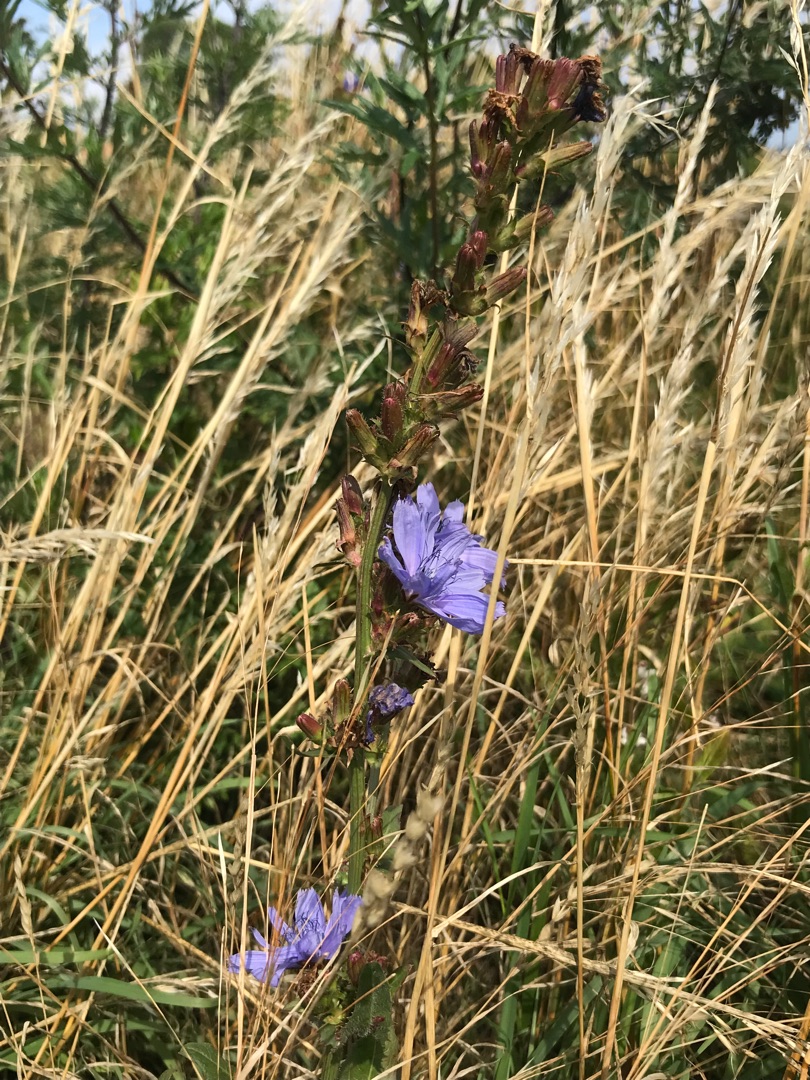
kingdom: Plantae
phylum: Tracheophyta
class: Magnoliopsida
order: Asterales
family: Asteraceae
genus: Cichorium
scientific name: Cichorium intybus
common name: Cikorie
